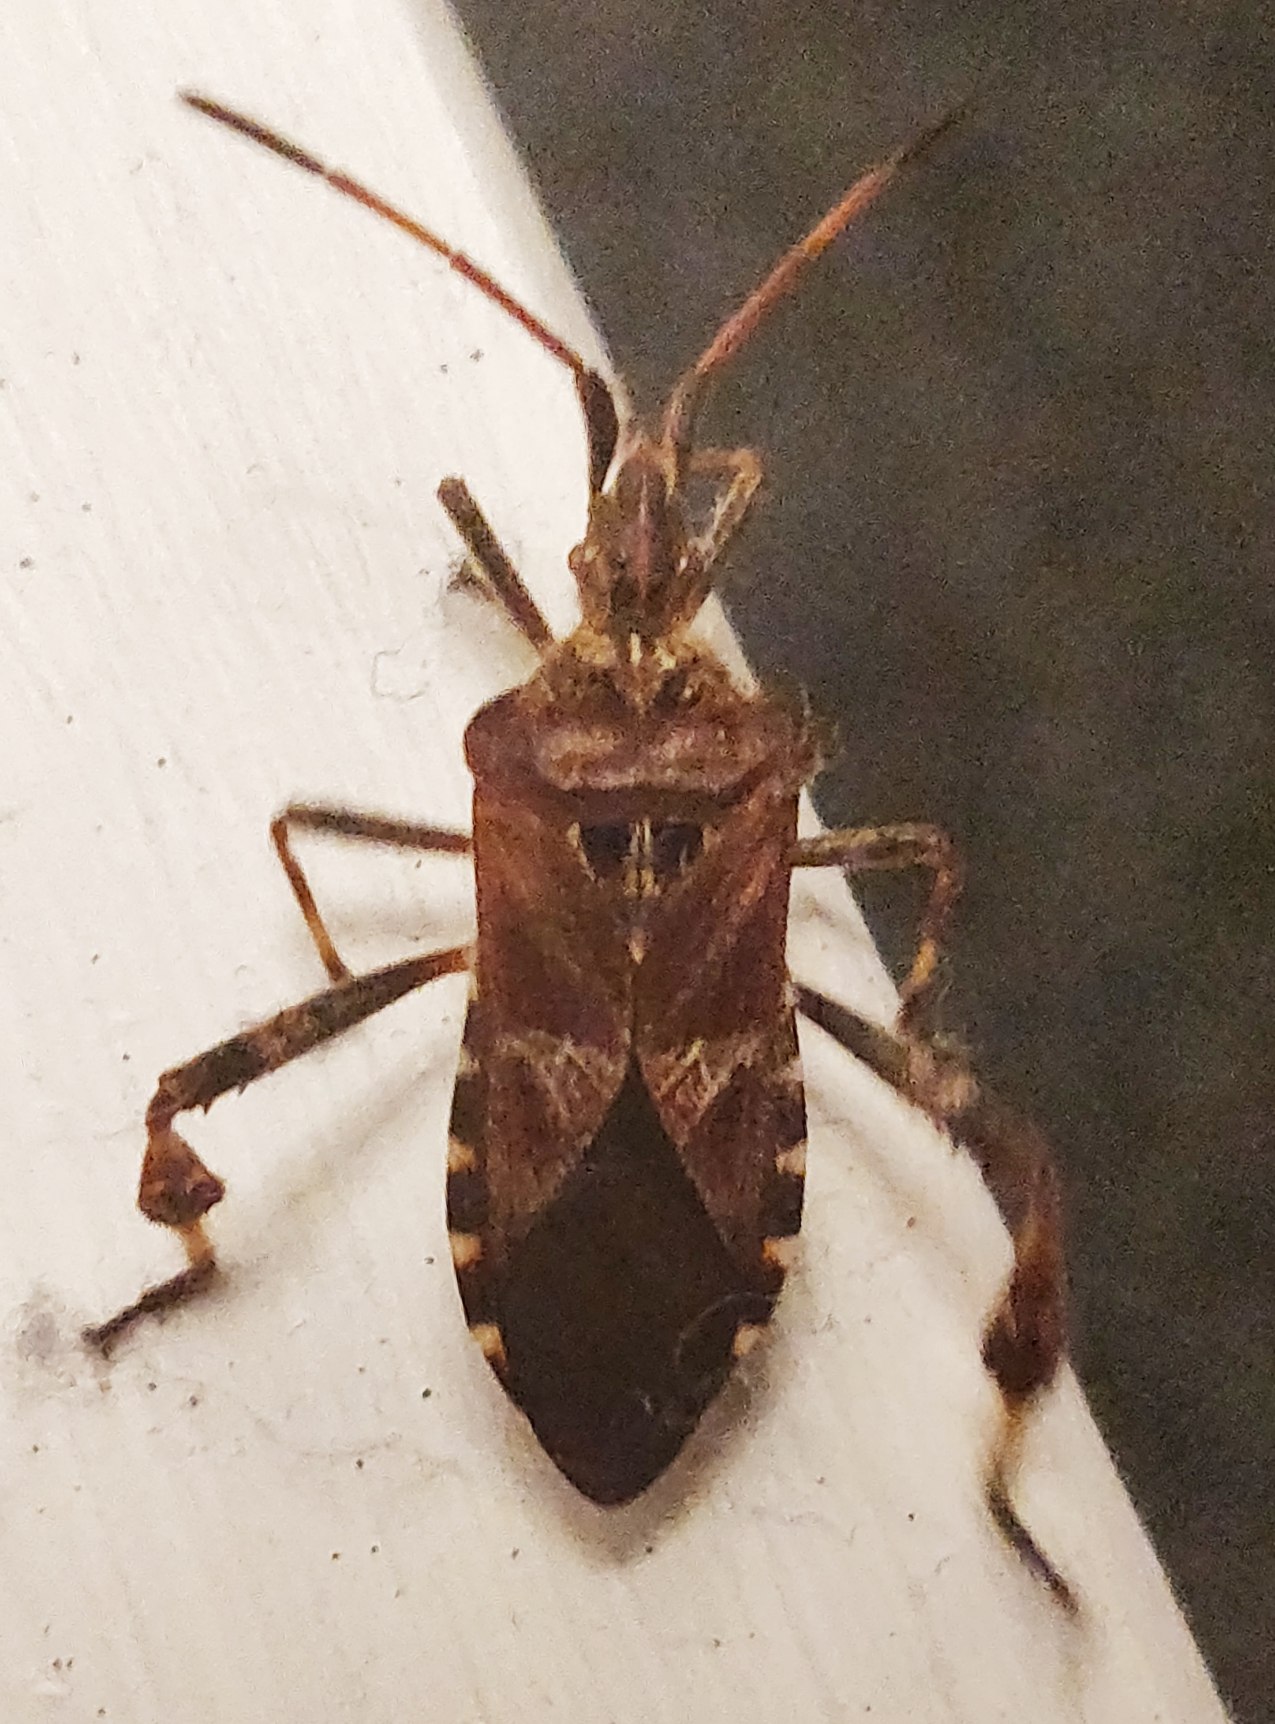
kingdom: Animalia
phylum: Arthropoda
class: Insecta
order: Hemiptera
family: Coreidae
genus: Leptoglossus
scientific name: Leptoglossus occidentalis
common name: Amerikansk fyrretæge
